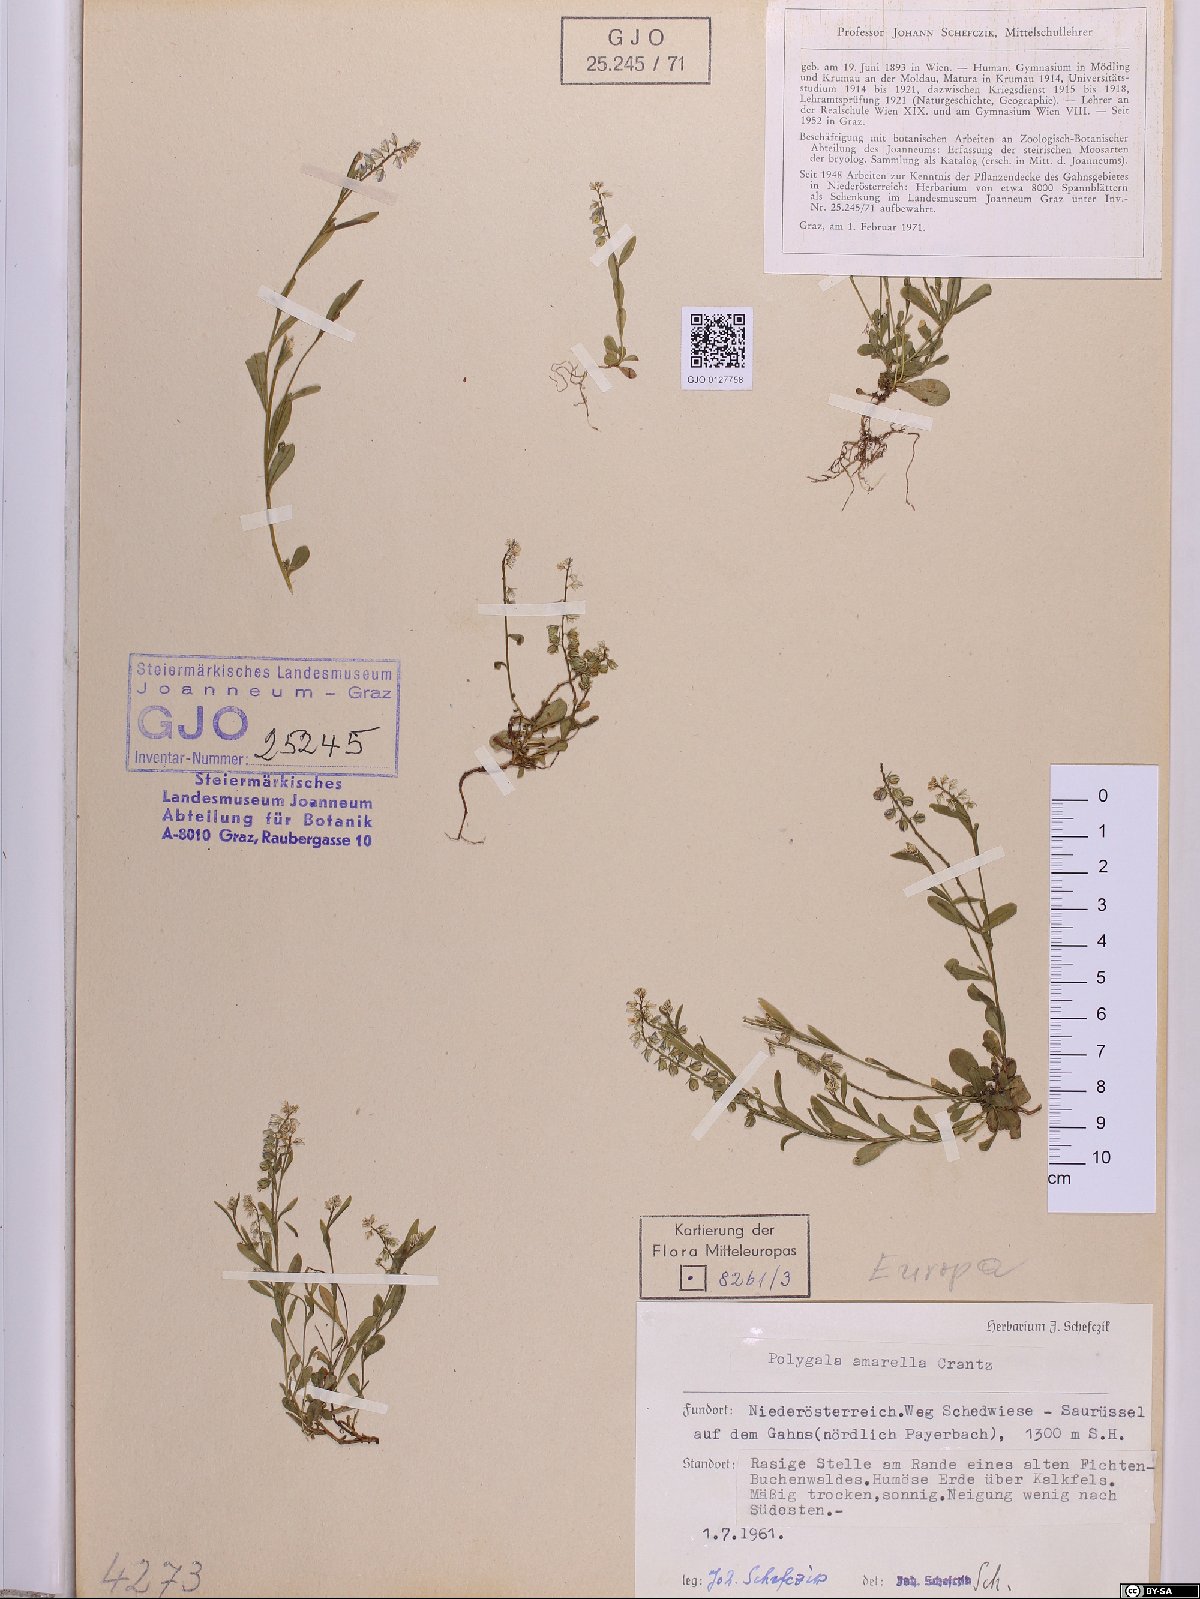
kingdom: Plantae
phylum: Tracheophyta
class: Magnoliopsida
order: Fabales
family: Polygalaceae
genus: Polygala
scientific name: Polygala amarella
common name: Dwarf milkwort
